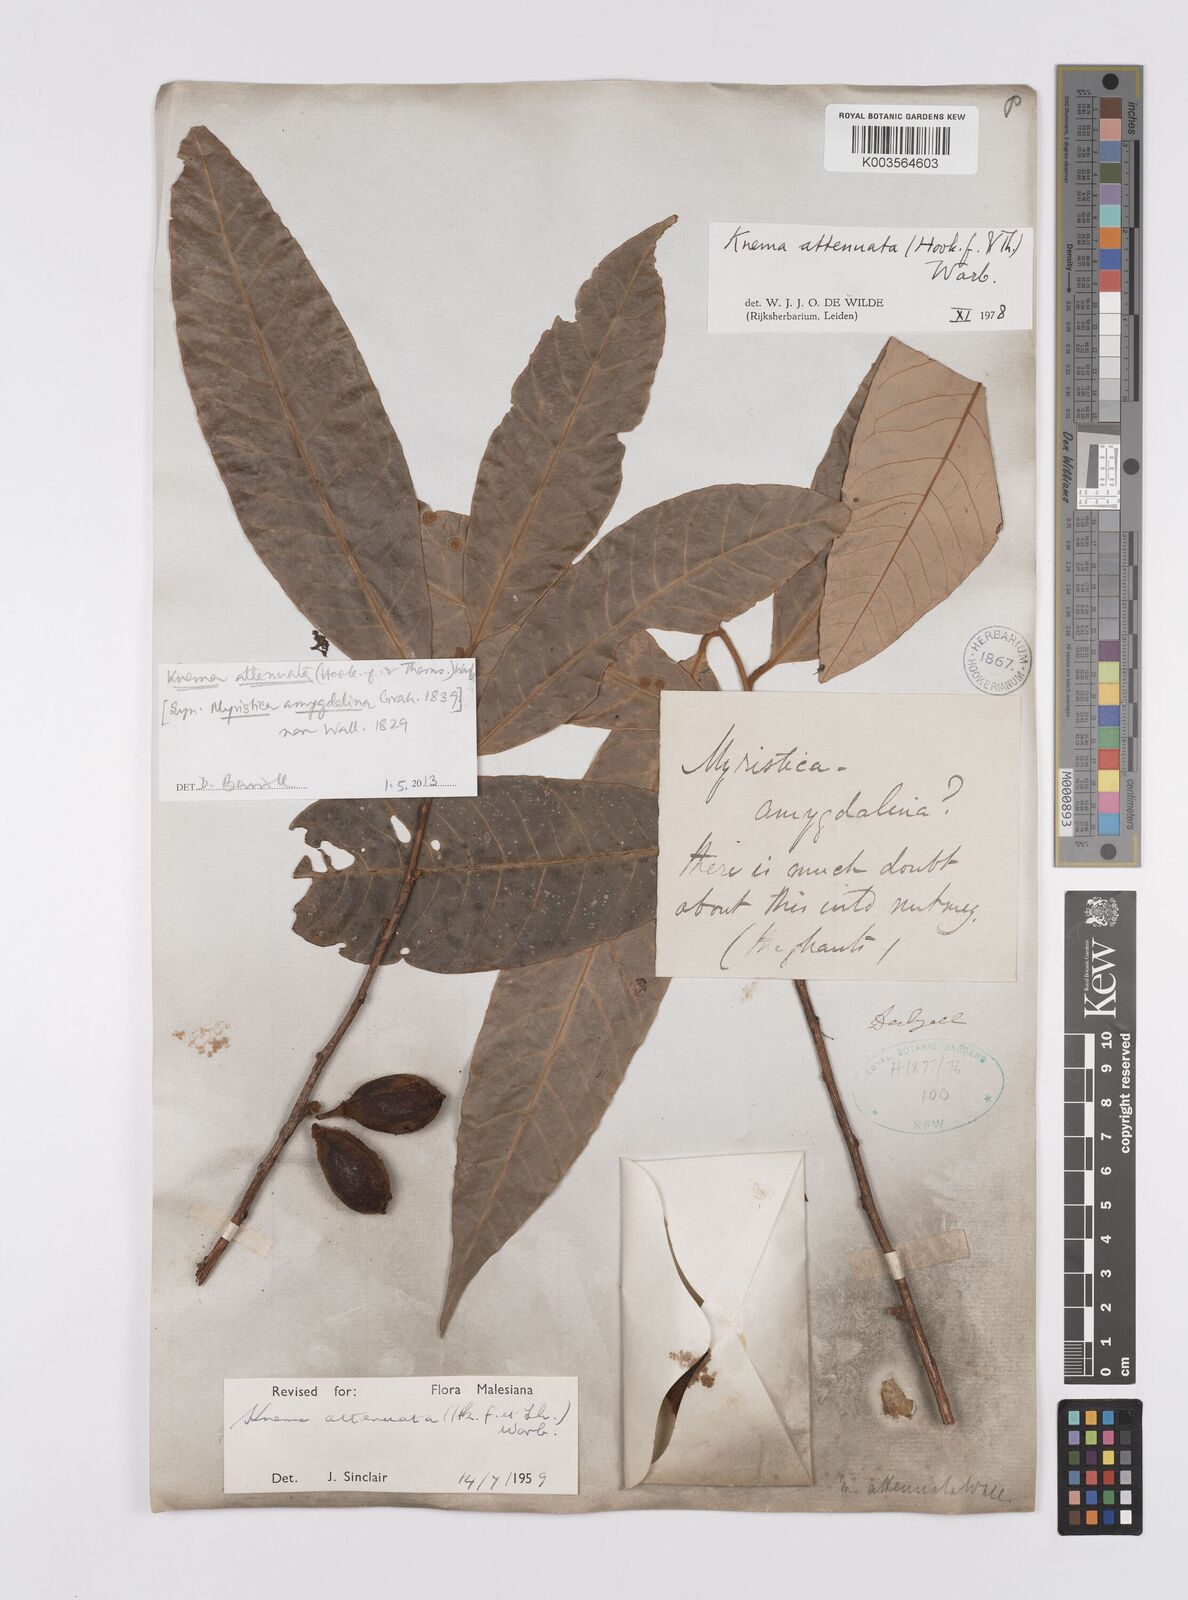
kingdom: Plantae
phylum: Tracheophyta
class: Magnoliopsida
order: Magnoliales
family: Myristicaceae
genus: Knema
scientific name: Knema attenuata
